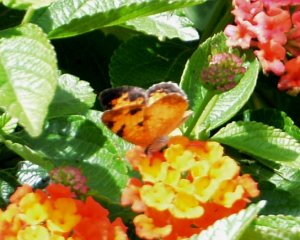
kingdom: Animalia
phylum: Arthropoda
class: Insecta
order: Lepidoptera
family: Nymphalidae
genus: Phyciodes
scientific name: Phyciodes tharos
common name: Northern Crescent
